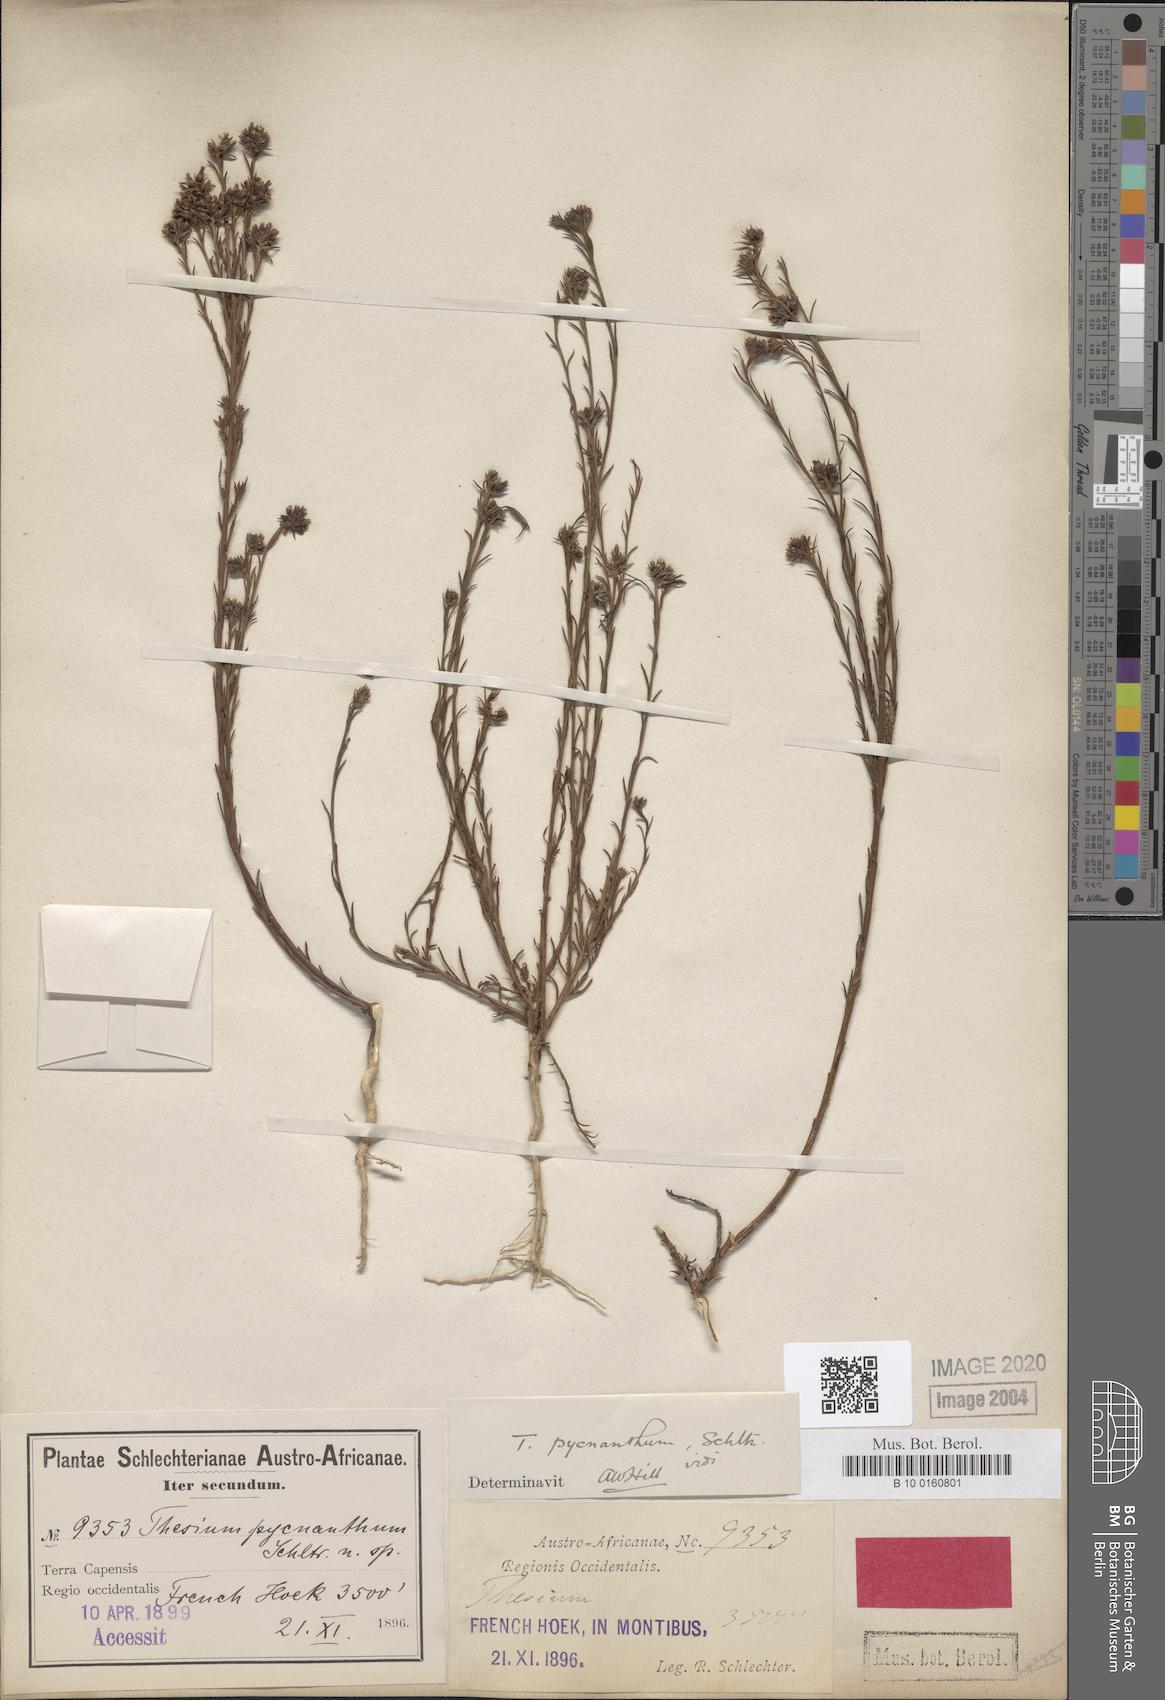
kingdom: Plantae
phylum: Tracheophyta
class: Magnoliopsida
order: Santalales
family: Thesiaceae
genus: Thesium
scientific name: Thesium pycnanthum
